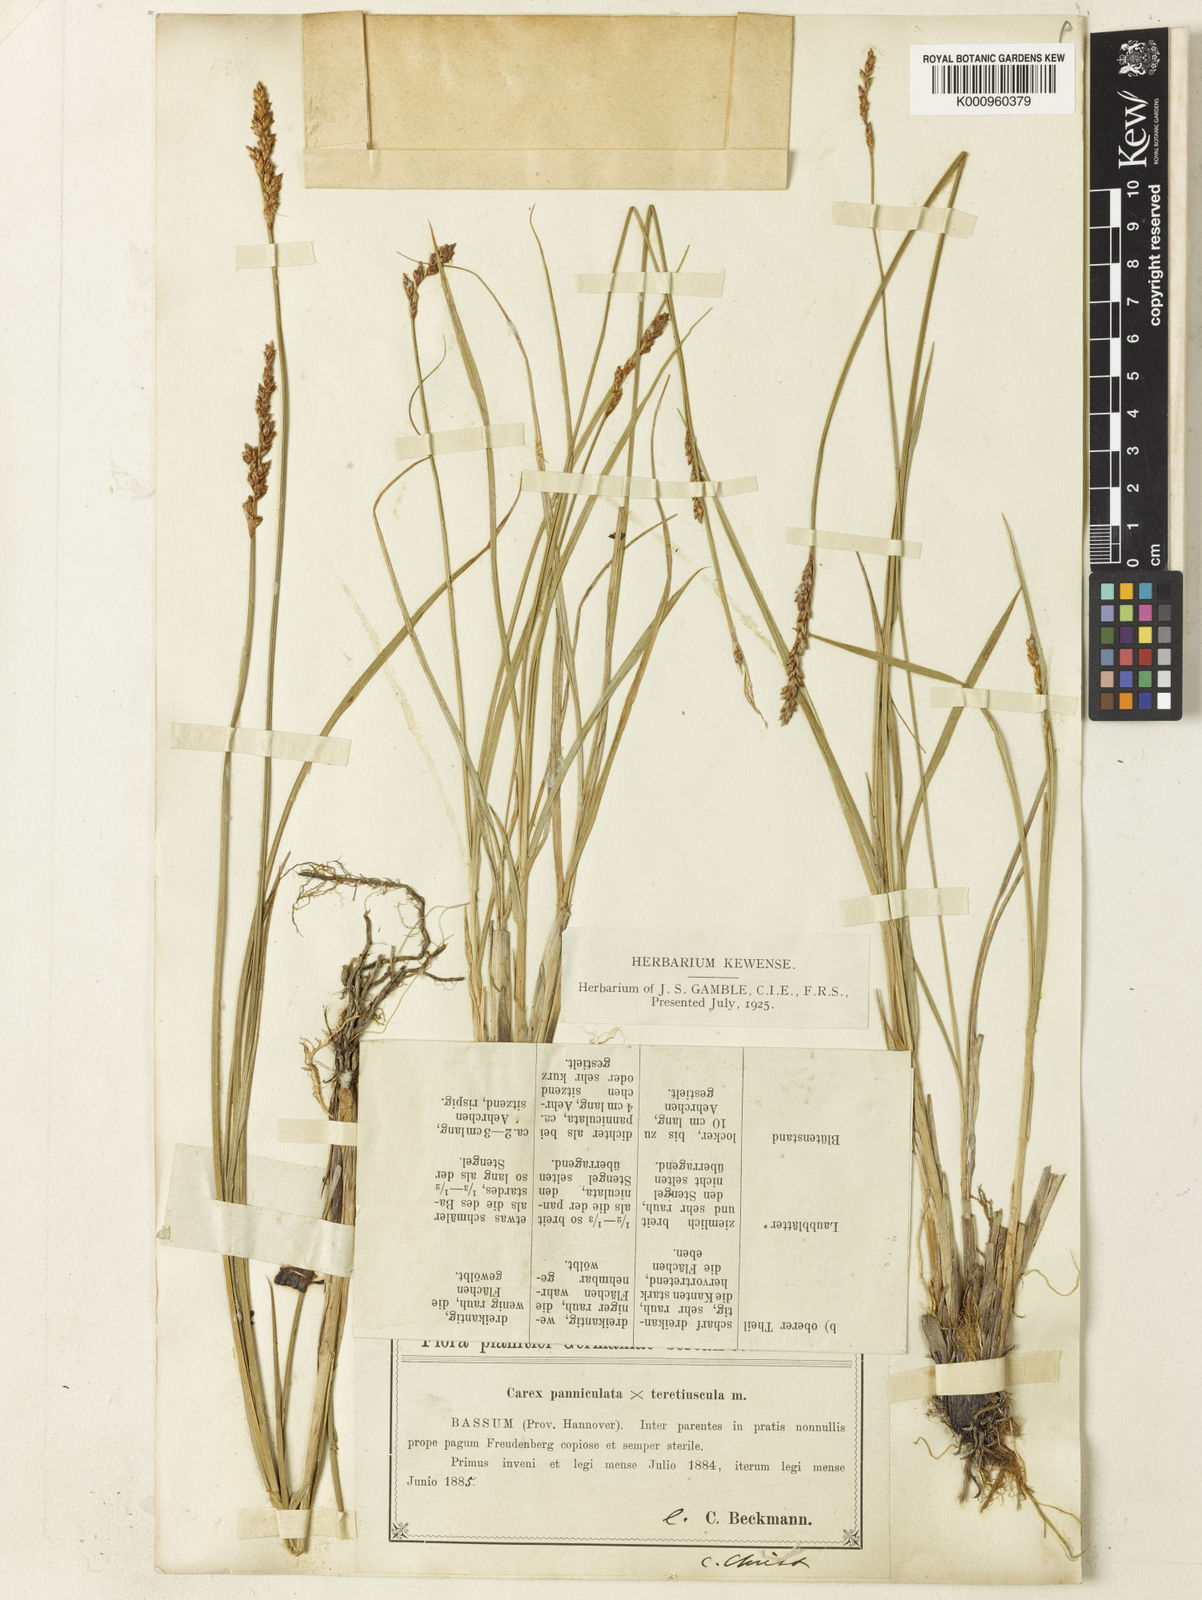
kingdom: Plantae
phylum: Tracheophyta
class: Liliopsida
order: Poales
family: Cyperaceae
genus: Carex
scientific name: Carex
